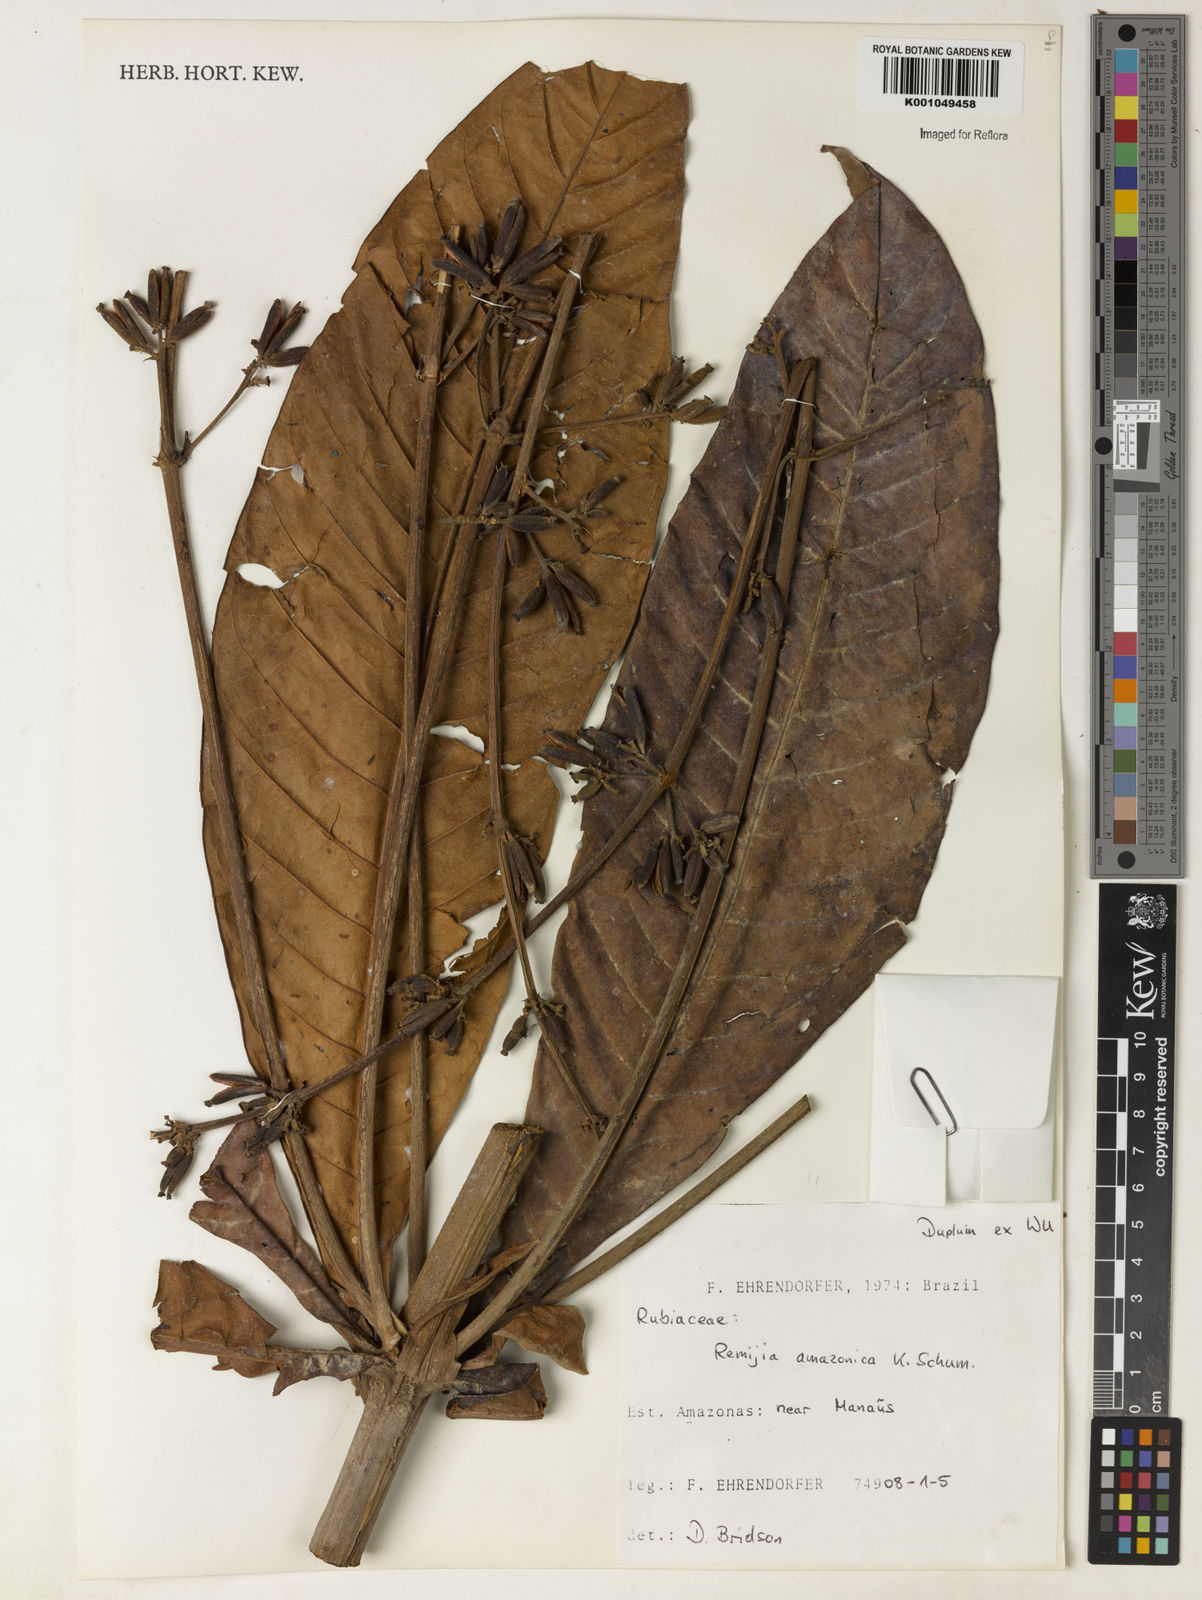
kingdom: Plantae
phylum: Tracheophyta
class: Magnoliopsida
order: Gentianales
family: Rubiaceae
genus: Remijia
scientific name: Remijia amazonica
